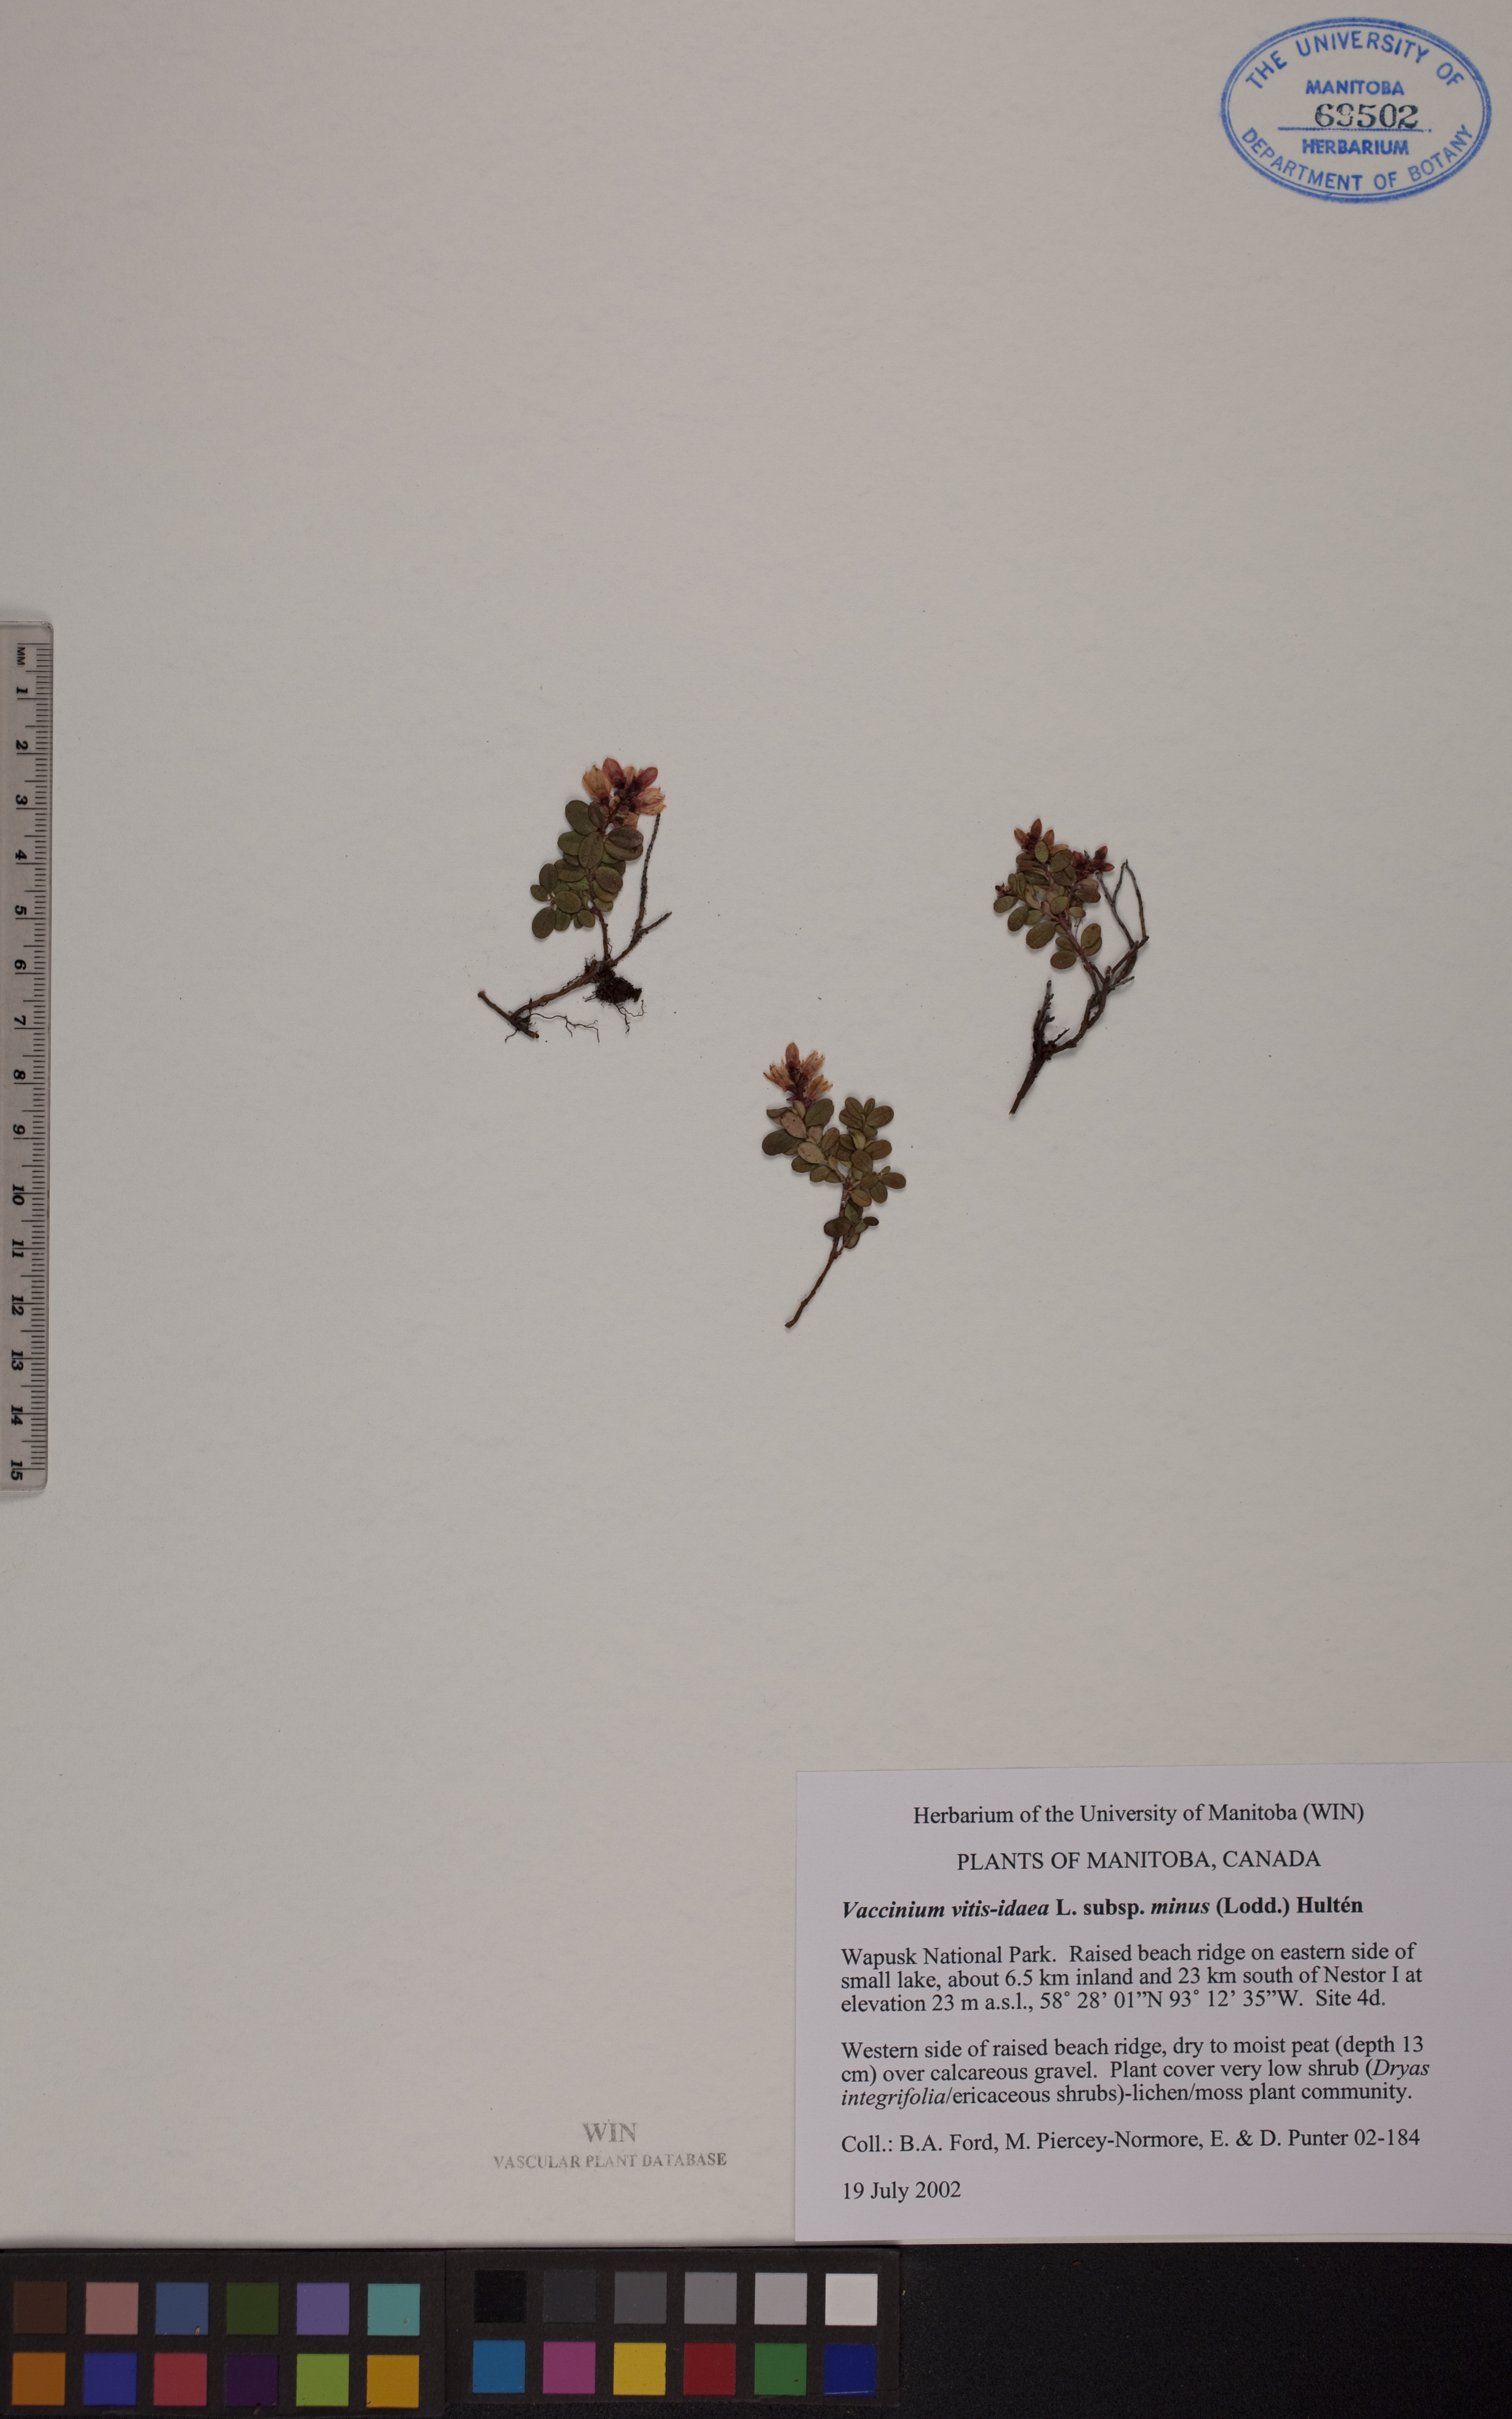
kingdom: Plantae
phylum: Tracheophyta
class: Magnoliopsida
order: Ericales
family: Ericaceae
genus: Vaccinium
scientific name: Vaccinium vitis-idaea
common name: Cowberry
